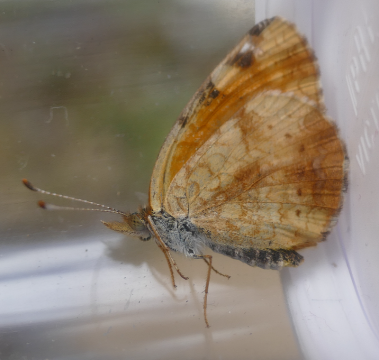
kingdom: Animalia
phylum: Arthropoda
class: Insecta
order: Lepidoptera
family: Nymphalidae
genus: Phyciodes
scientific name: Phyciodes tharos
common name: Northern Crescent
